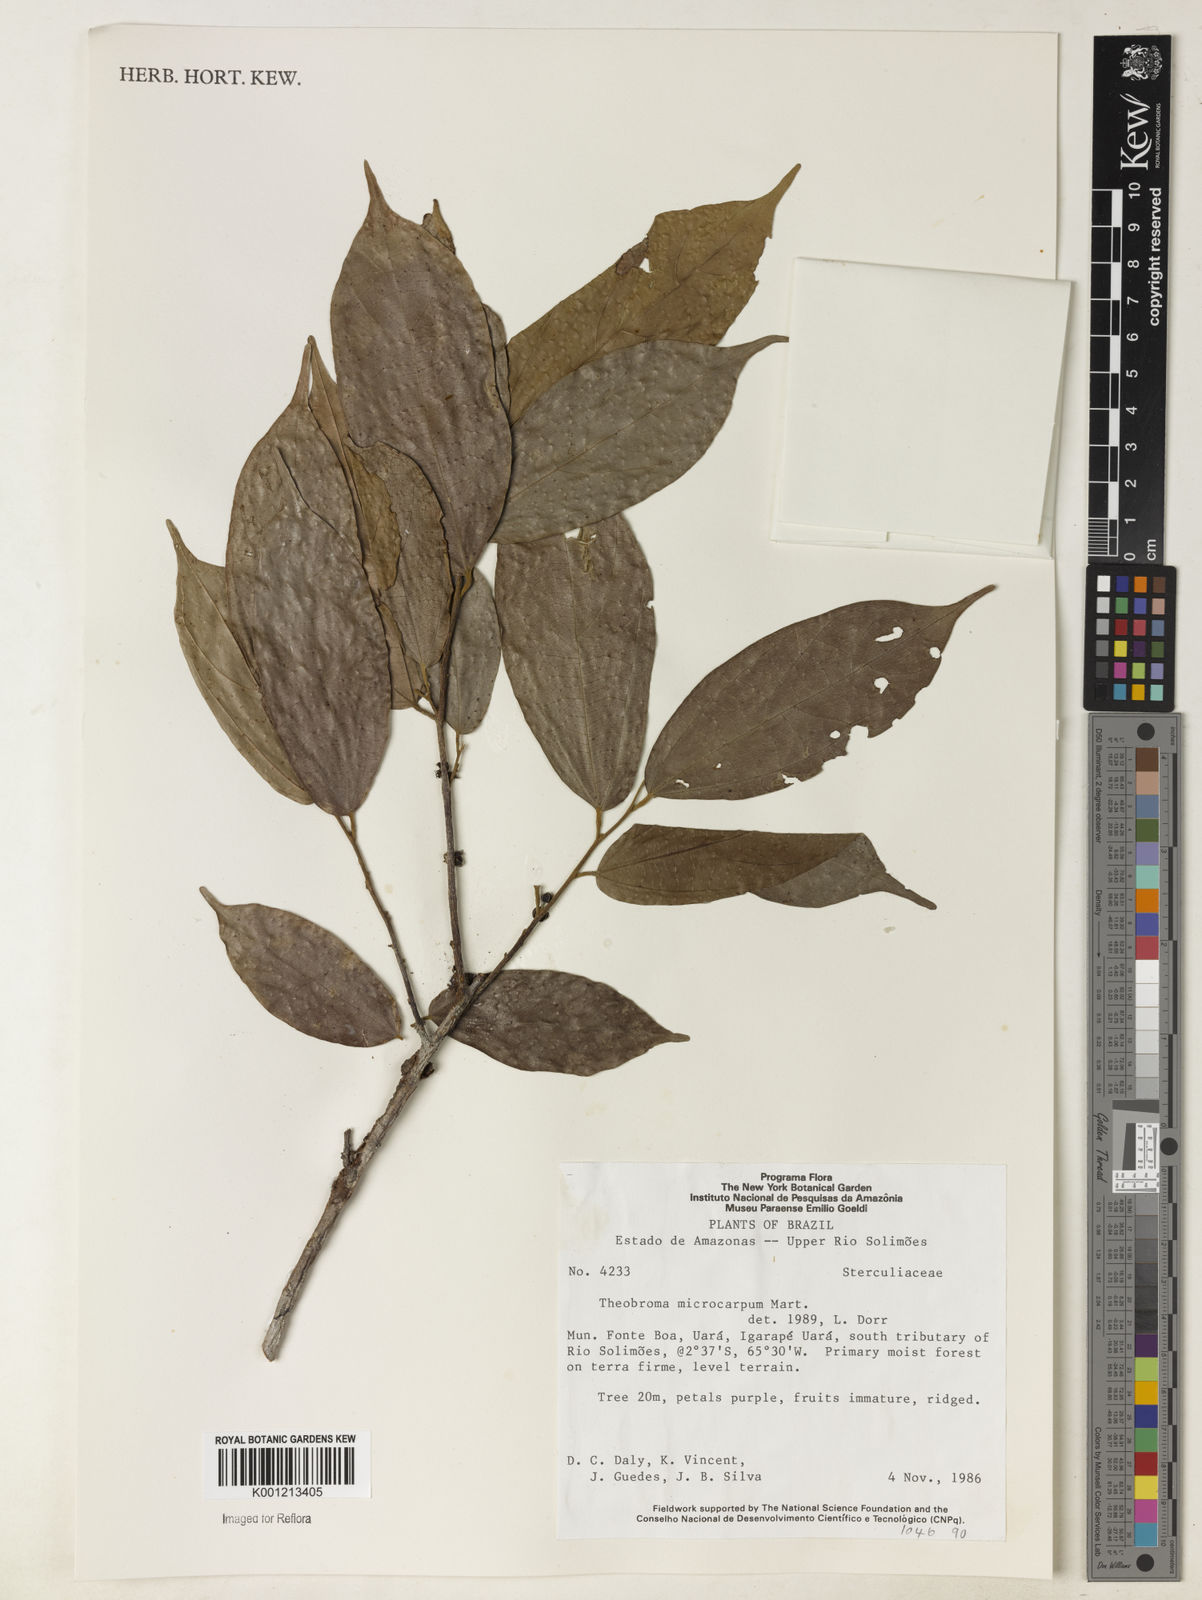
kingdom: Plantae
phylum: Tracheophyta
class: Magnoliopsida
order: Malvales
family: Malvaceae
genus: Theobroma
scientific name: Theobroma microcarpum
